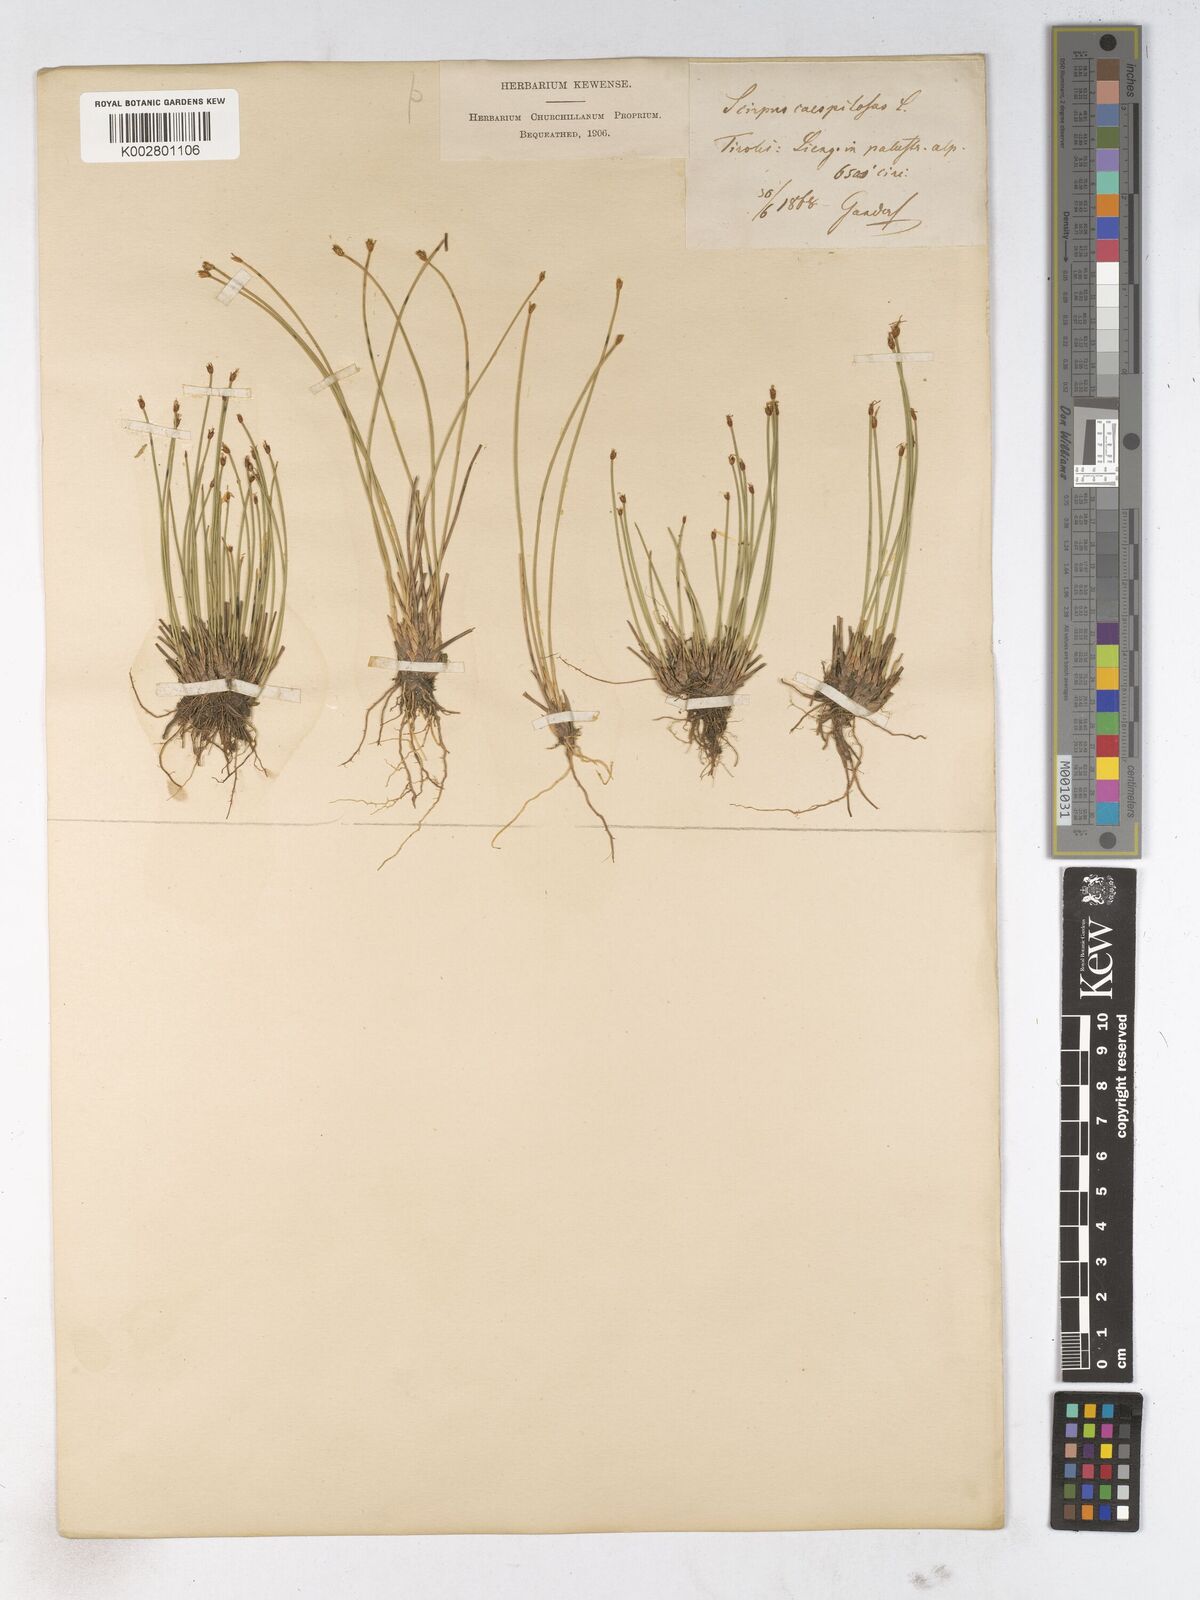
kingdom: Plantae
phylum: Tracheophyta
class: Liliopsida
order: Poales
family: Cyperaceae
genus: Trichophorum
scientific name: Trichophorum cespitosum
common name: Cespitose bulrush
